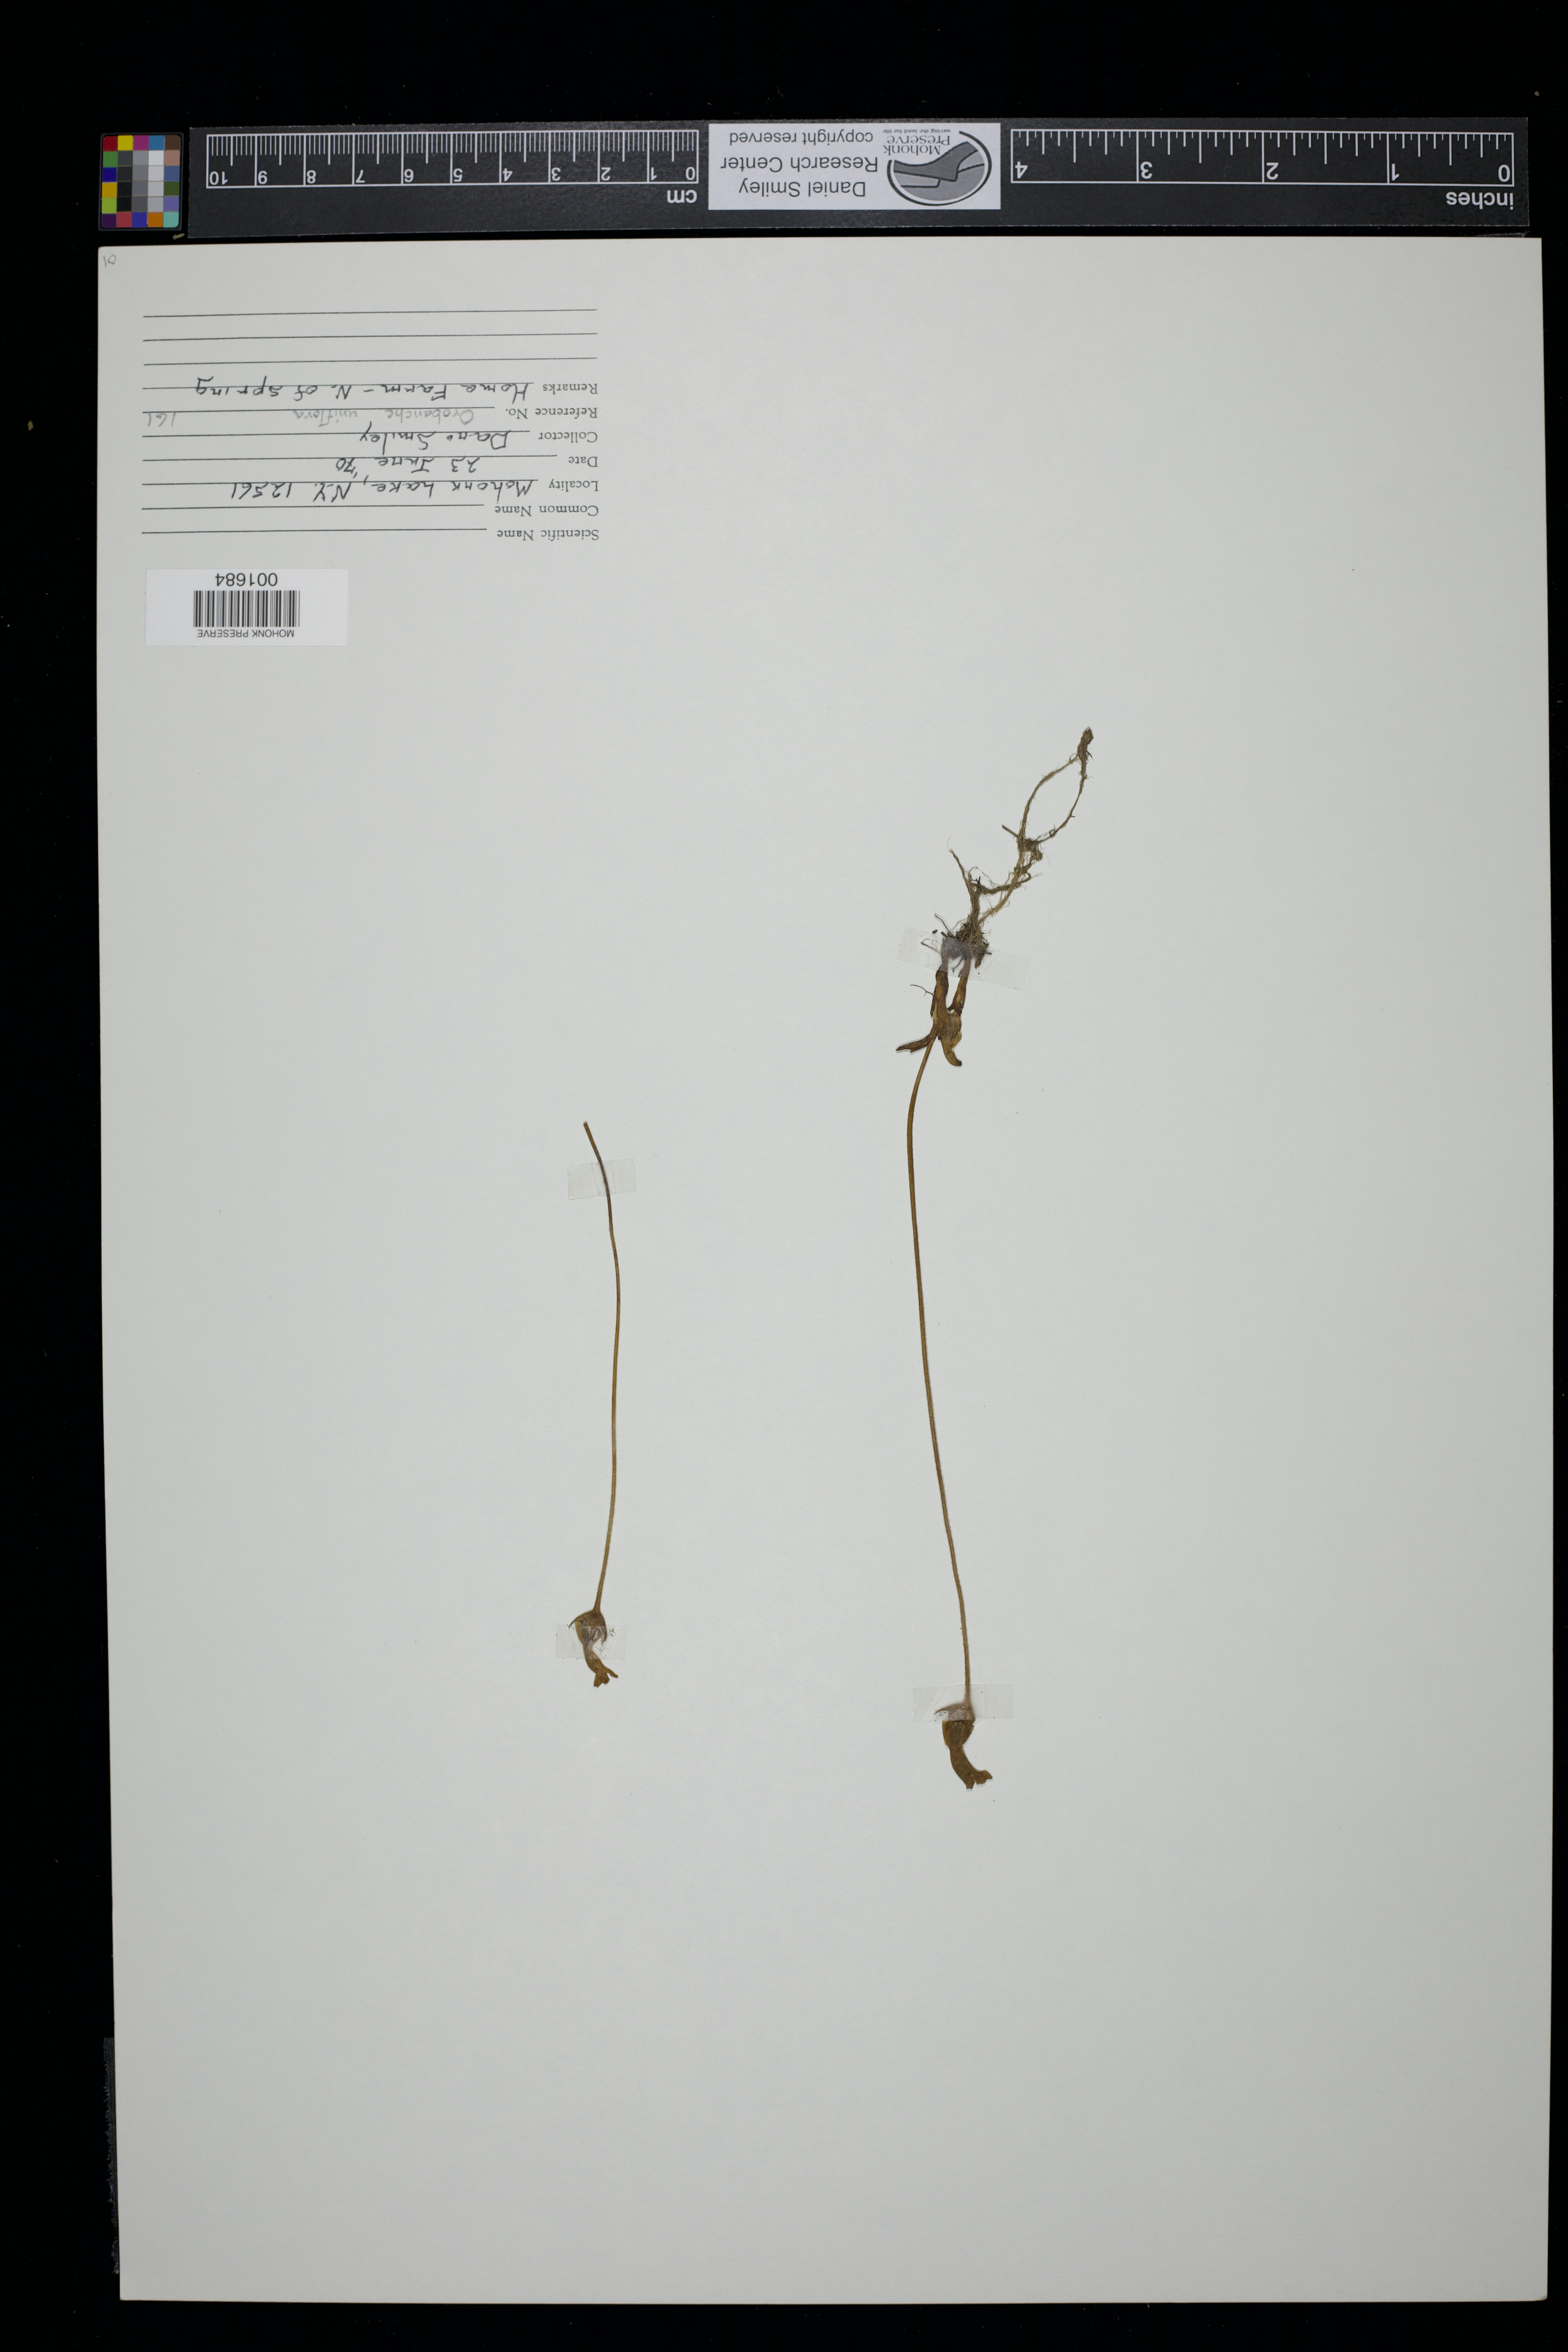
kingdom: Plantae
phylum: Tracheophyta
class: Magnoliopsida
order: Lamiales
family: Orobanchaceae
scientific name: Orobanchaceae
